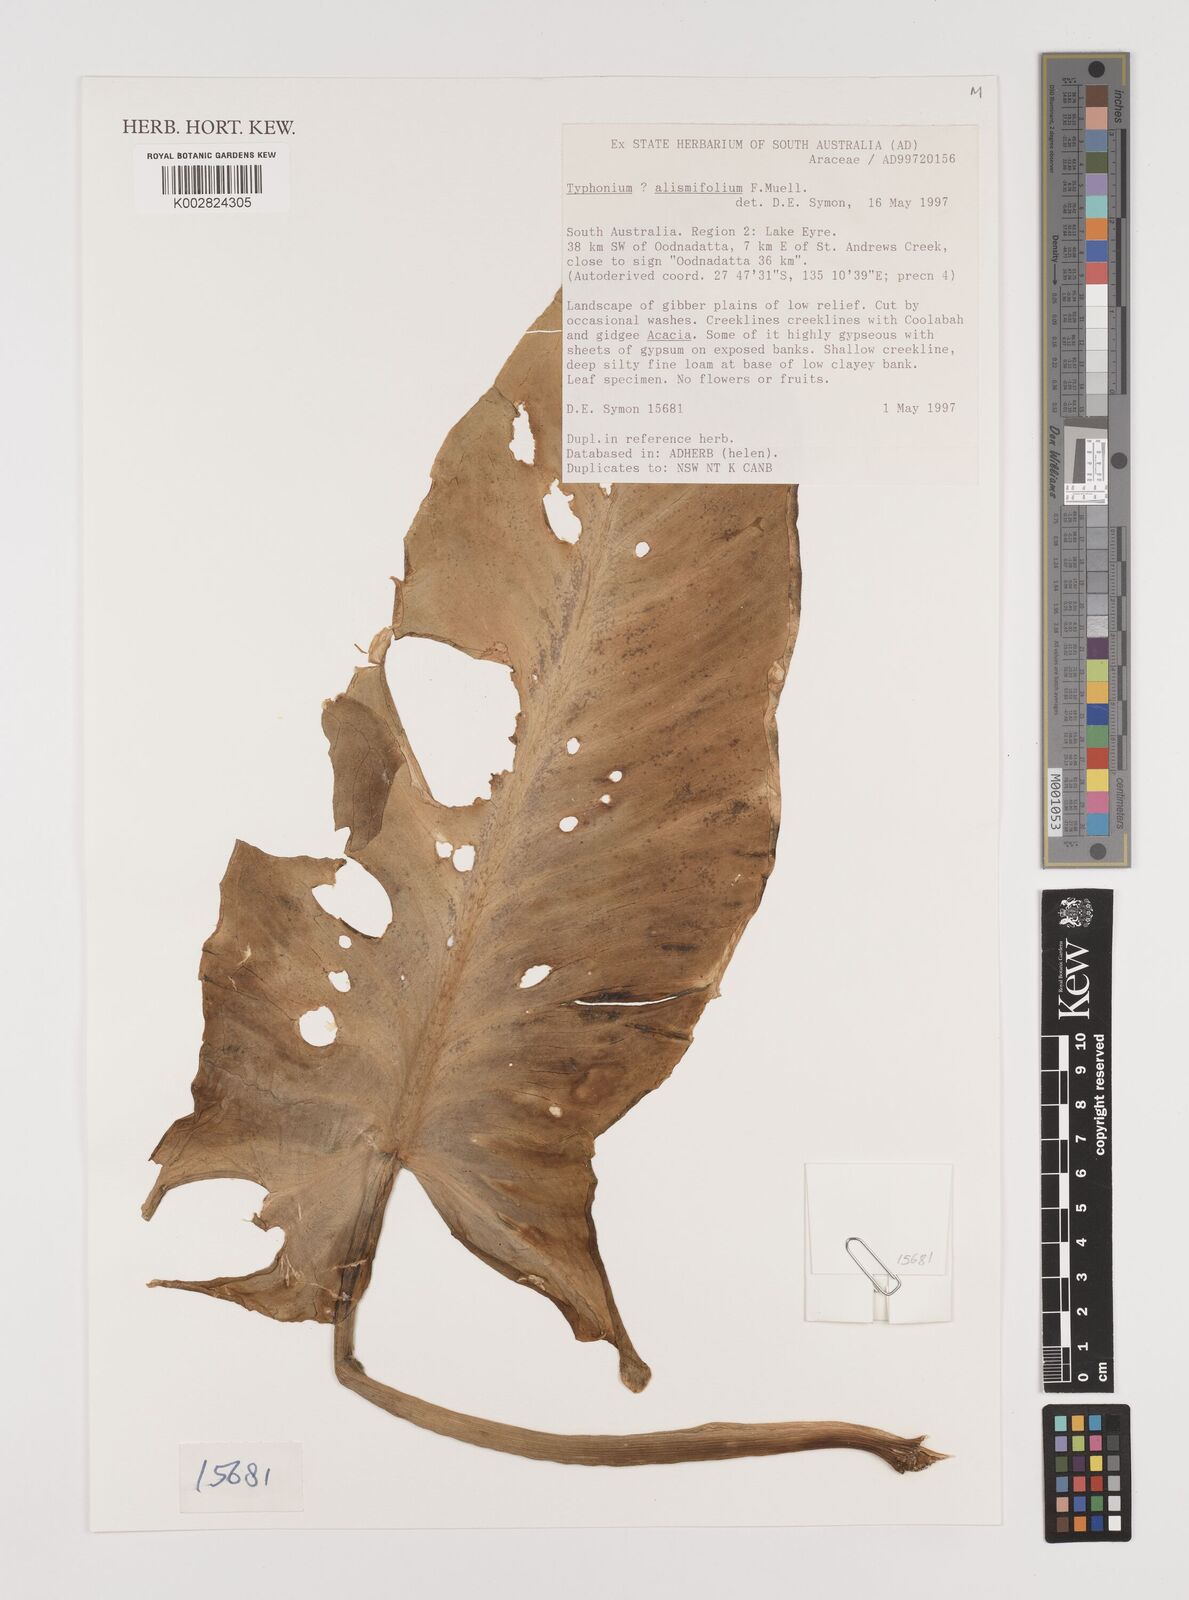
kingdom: Plantae
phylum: Tracheophyta
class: Liliopsida
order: Alismatales
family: Araceae
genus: Typhonium
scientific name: Typhonium alismifolium
